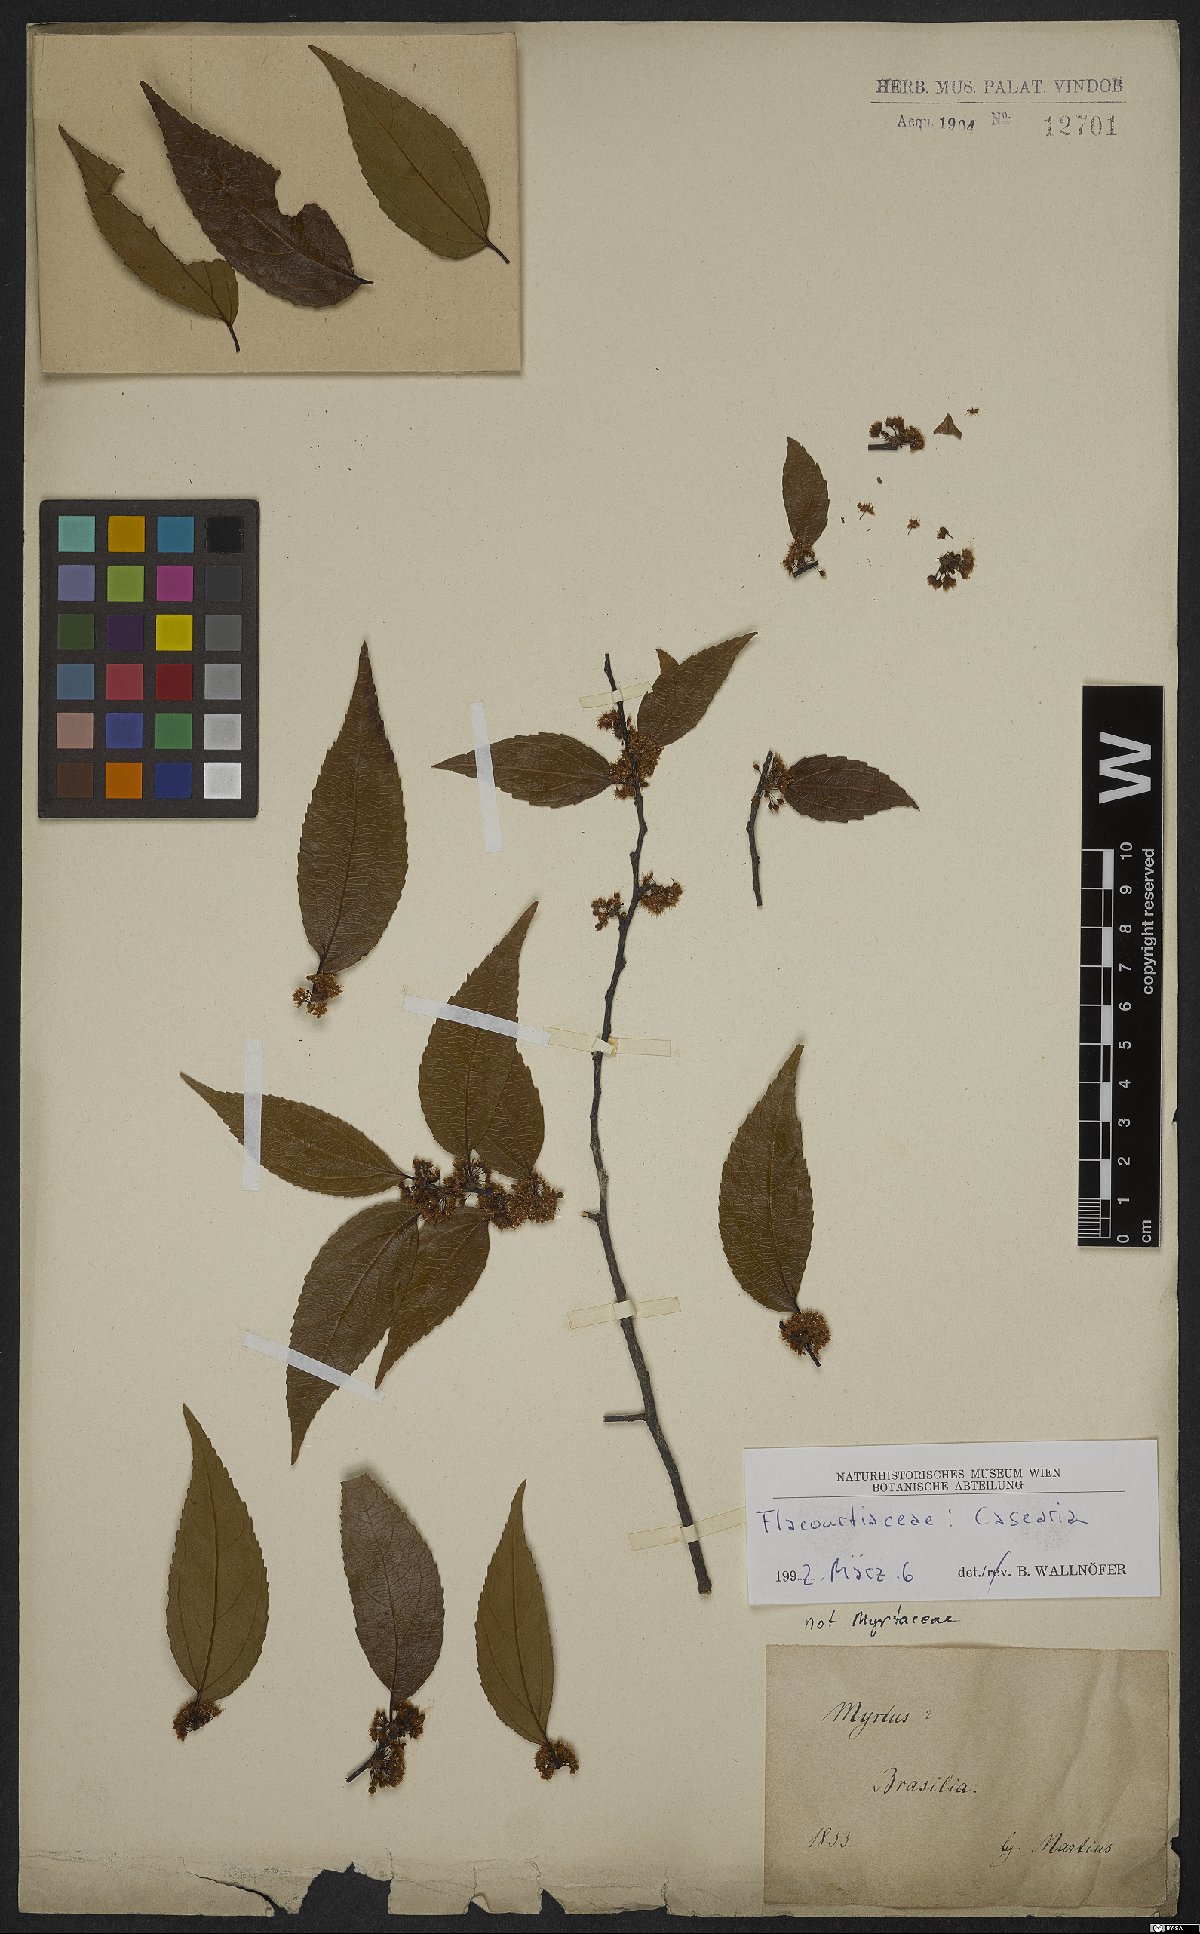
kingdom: Plantae
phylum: Tracheophyta
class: Magnoliopsida
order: Malpighiales
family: Salicaceae
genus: Casearia
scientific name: Casearia
